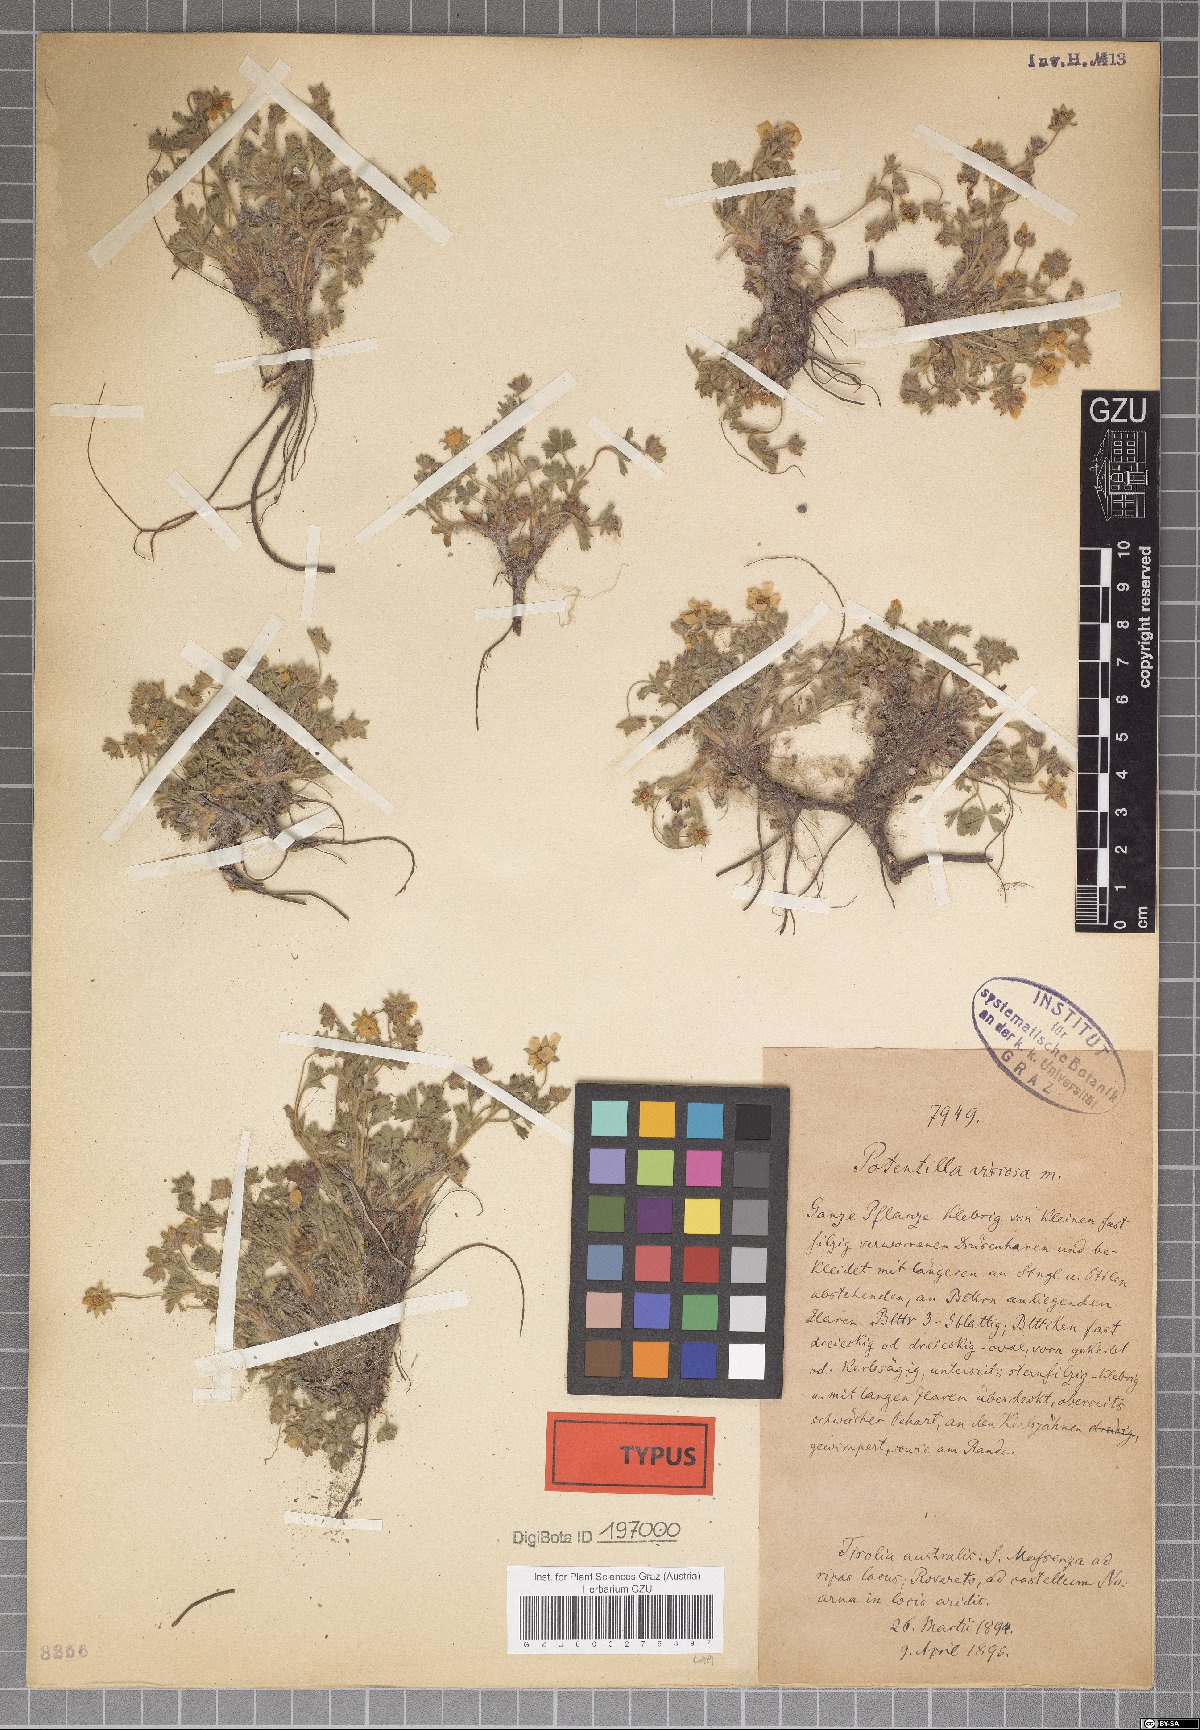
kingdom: Plantae
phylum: Tracheophyta
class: Magnoliopsida
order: Rosales
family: Rosaceae
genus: Potentilla
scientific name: Potentilla pusilla
